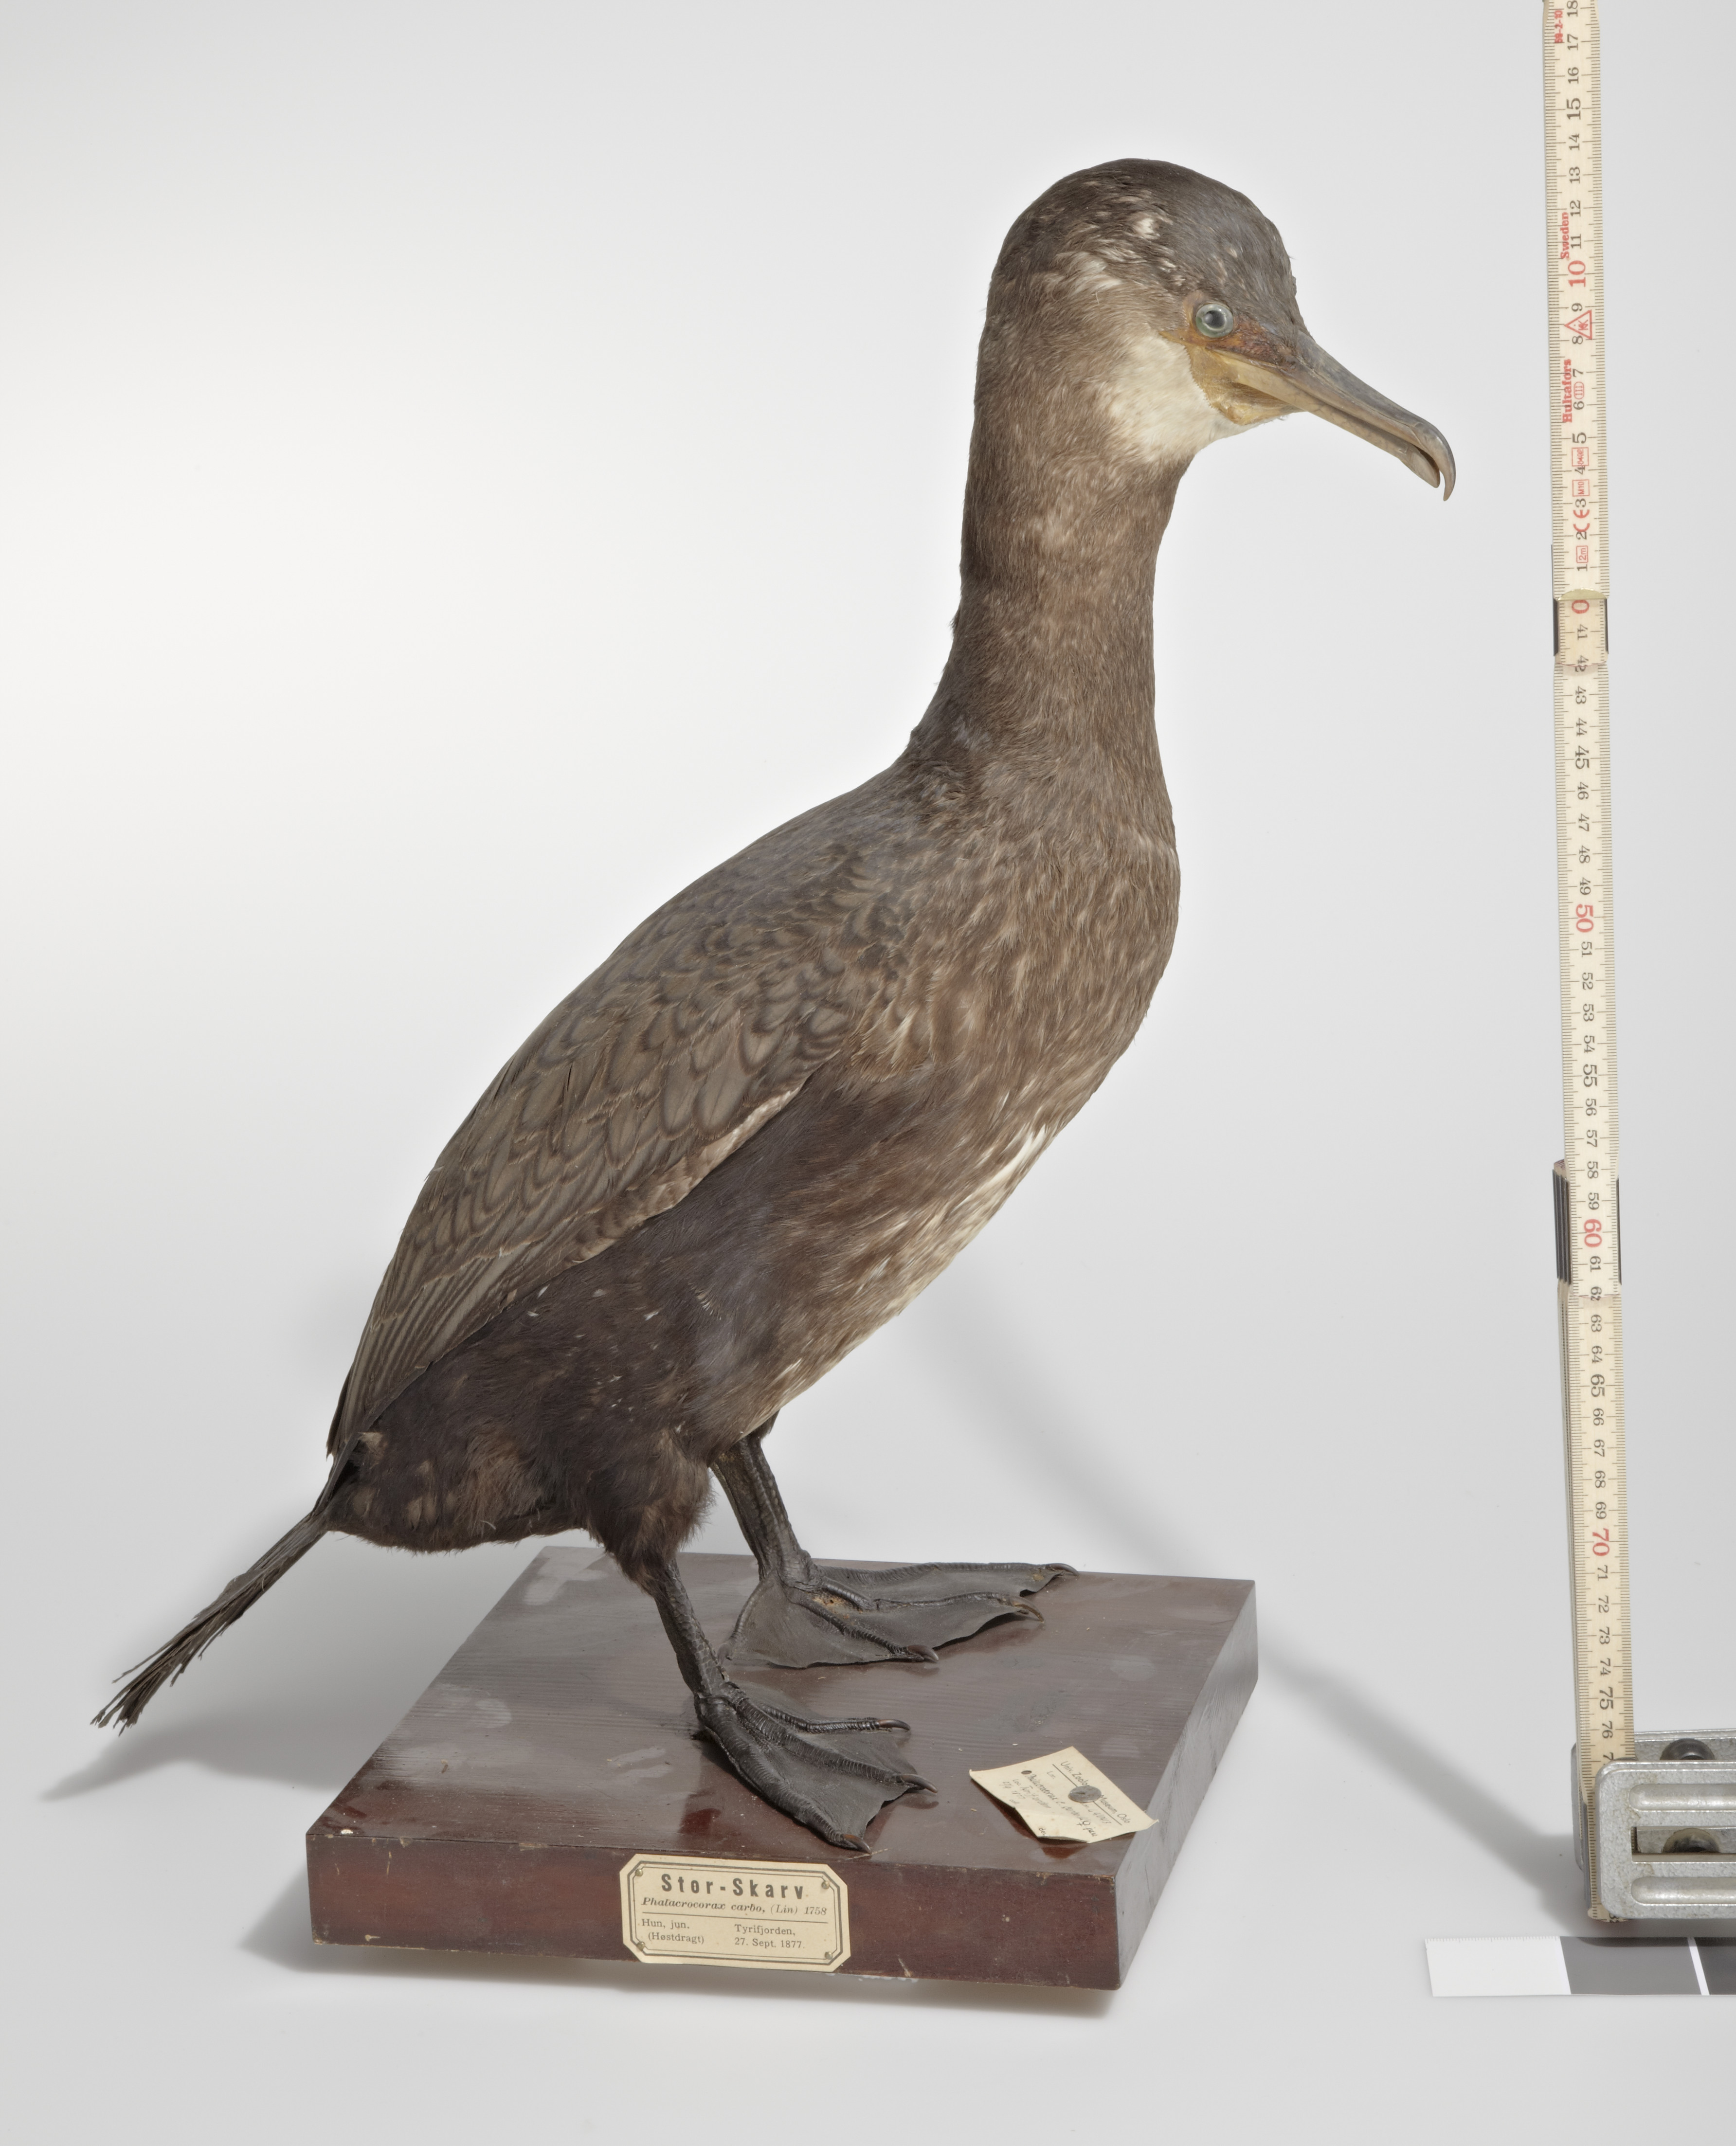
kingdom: Animalia
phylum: Chordata
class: Aves
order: Suliformes
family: Phalacrocoracidae
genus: Phalacrocorax
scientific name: Phalacrocorax carbo
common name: Great cormorant
